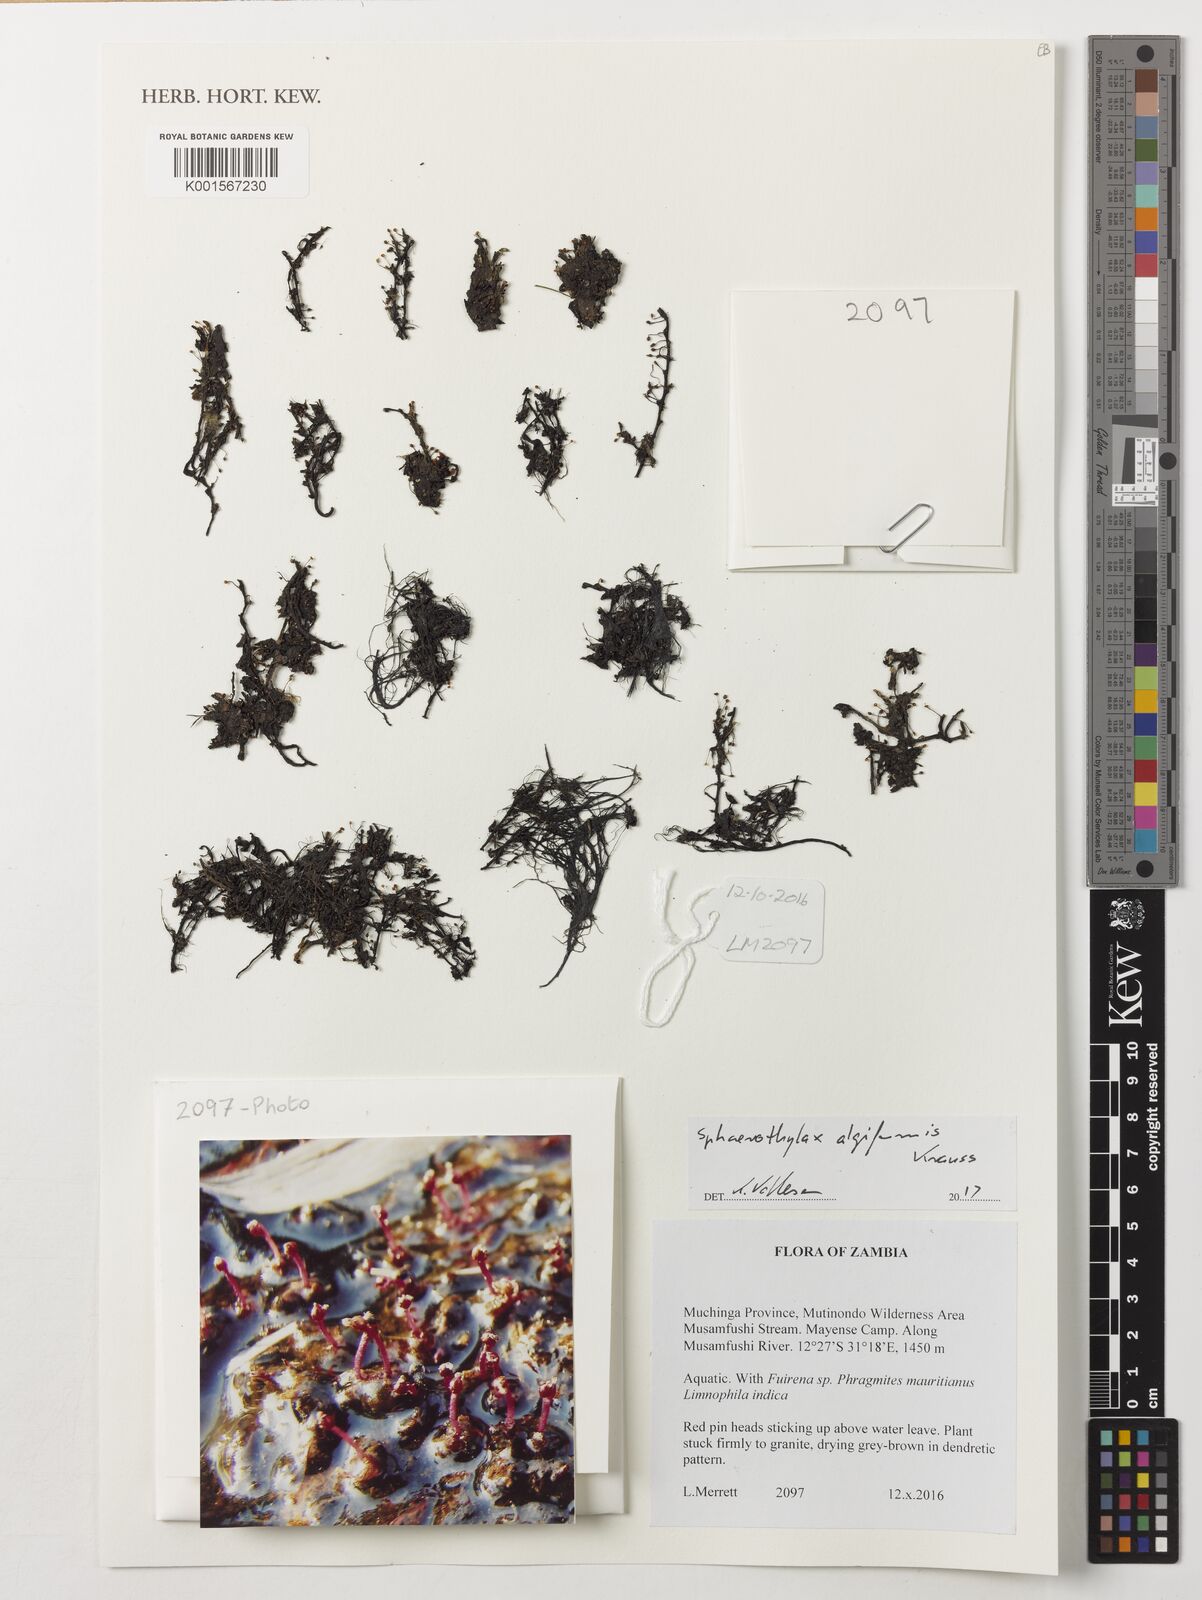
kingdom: Plantae
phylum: Tracheophyta
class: Magnoliopsida
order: Malpighiales
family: Podostemaceae
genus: Sphaerothylax
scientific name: Sphaerothylax algiformis
